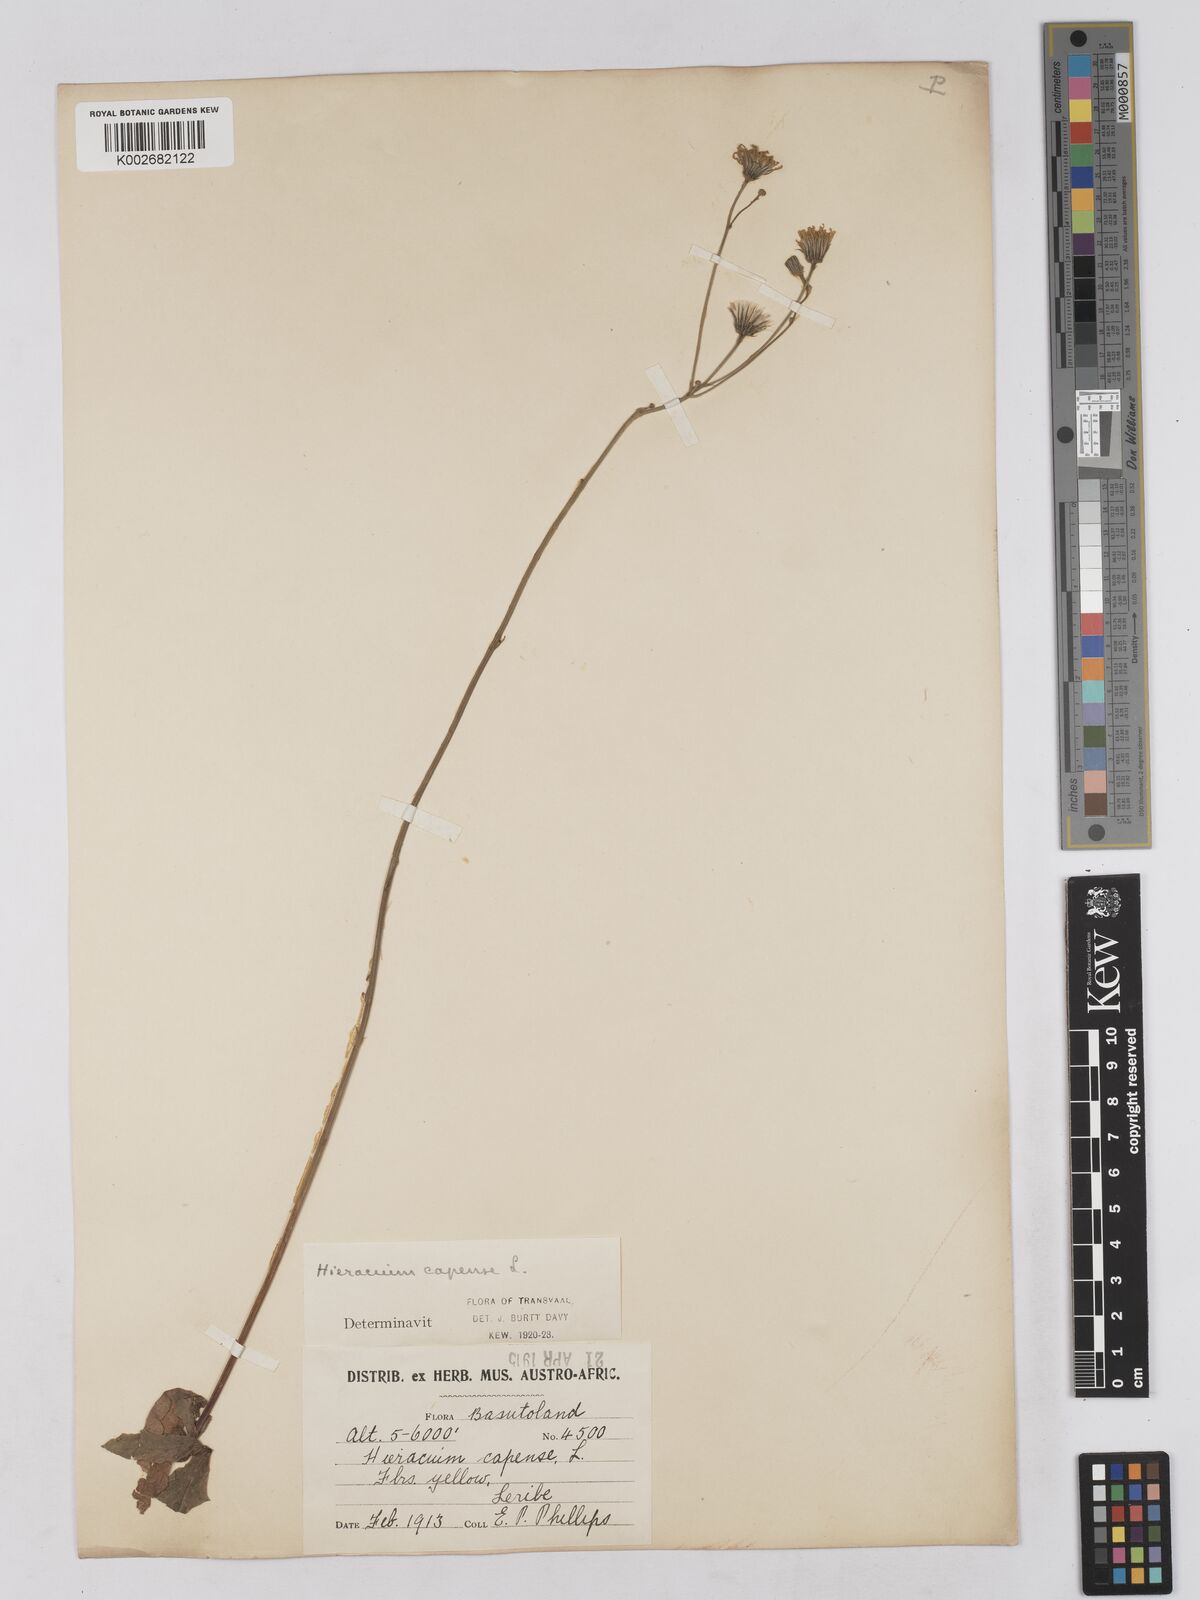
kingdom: Plantae
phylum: Tracheophyta
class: Magnoliopsida
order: Asterales
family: Asteraceae
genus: Tolpis
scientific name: Tolpis capensis
